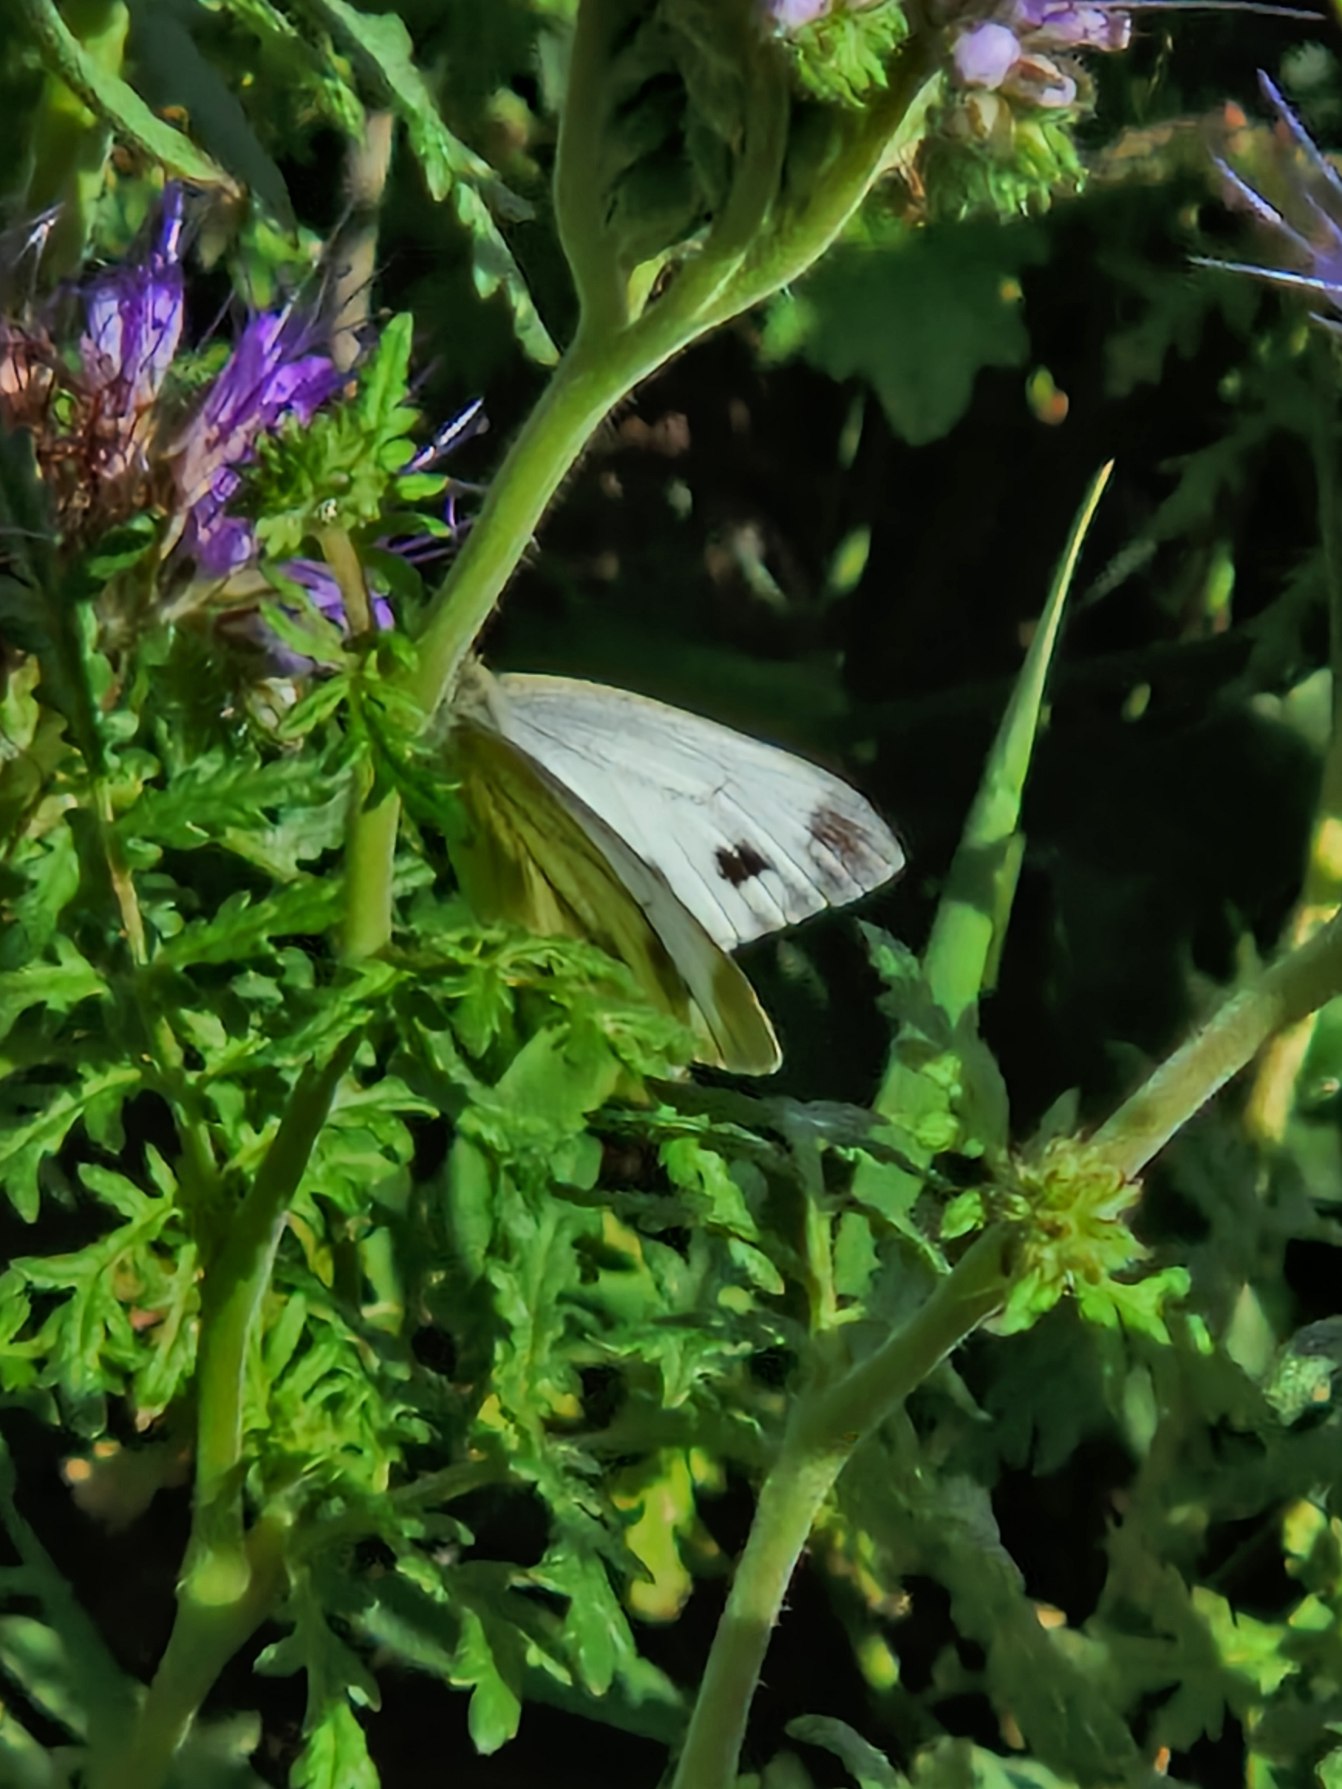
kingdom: Animalia
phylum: Arthropoda
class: Insecta
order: Lepidoptera
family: Pieridae
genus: Pieris
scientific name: Pieris napi
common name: Grønåret kålsommerfugl
